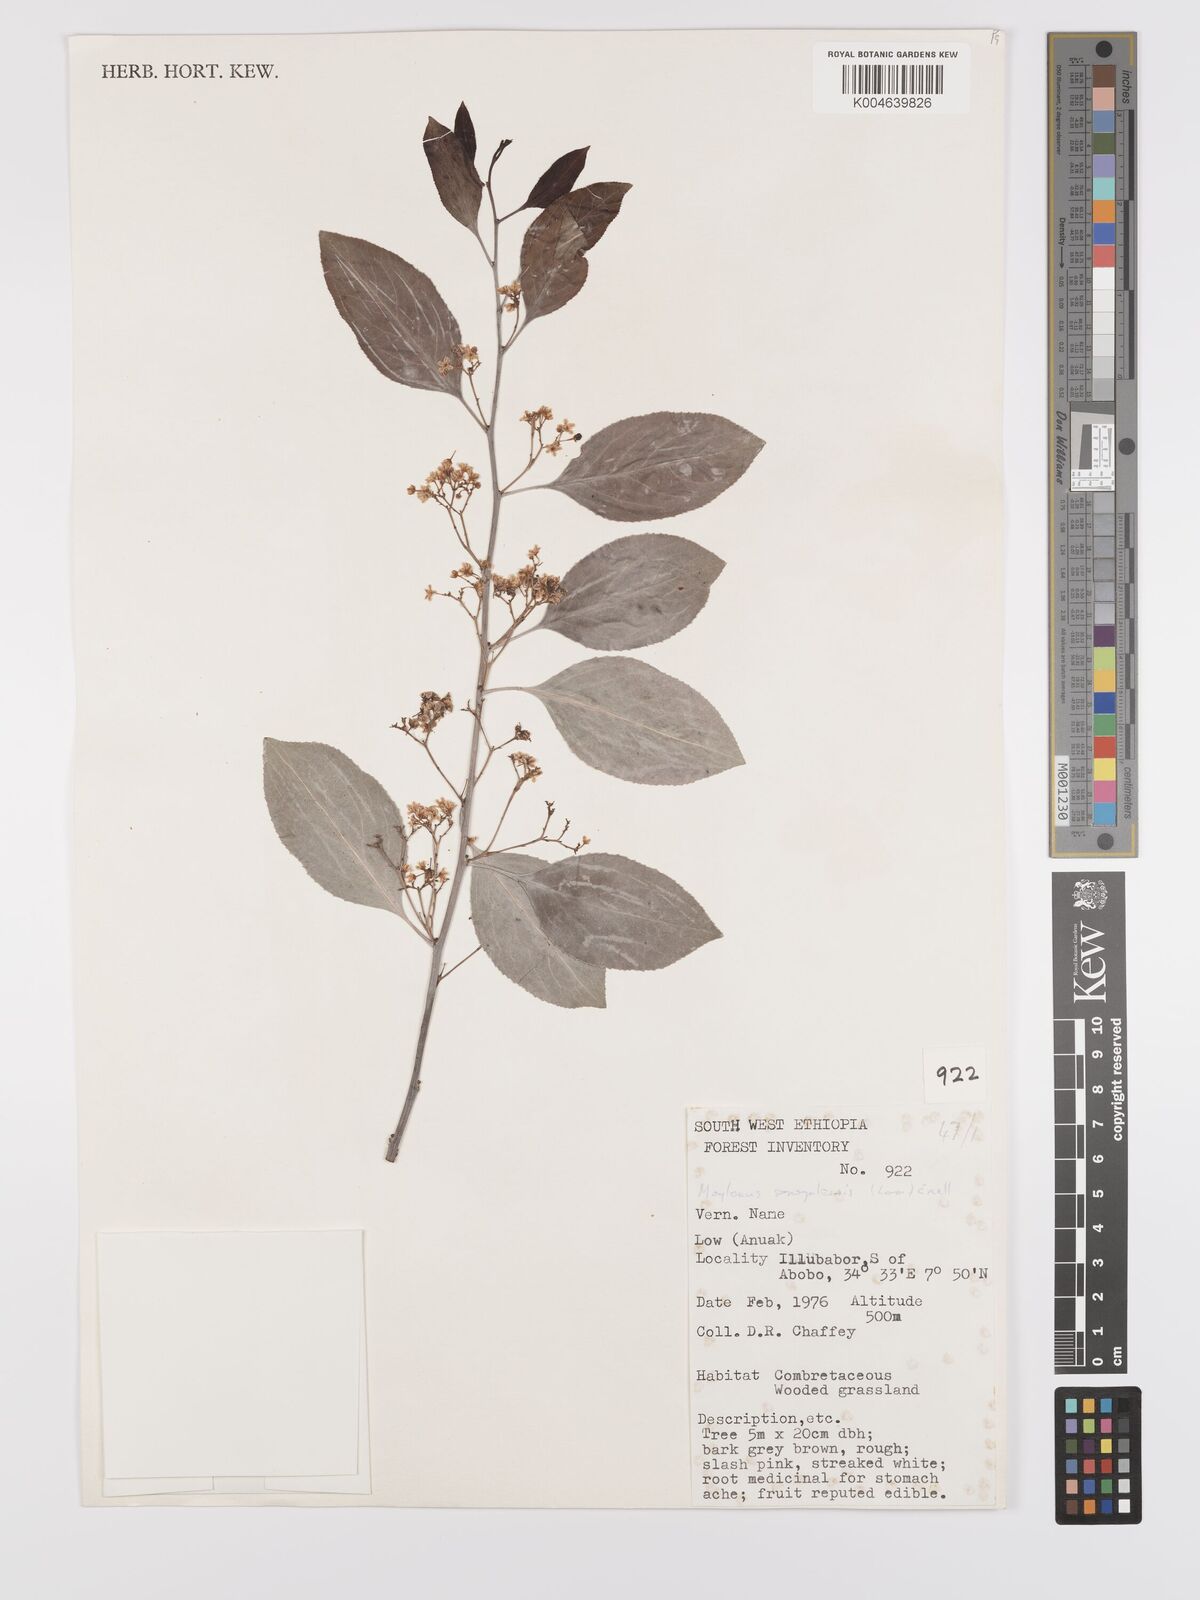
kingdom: Plantae
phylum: Tracheophyta
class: Magnoliopsida
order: Celastrales
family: Celastraceae
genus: Gymnosporia
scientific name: Gymnosporia senegalensis
